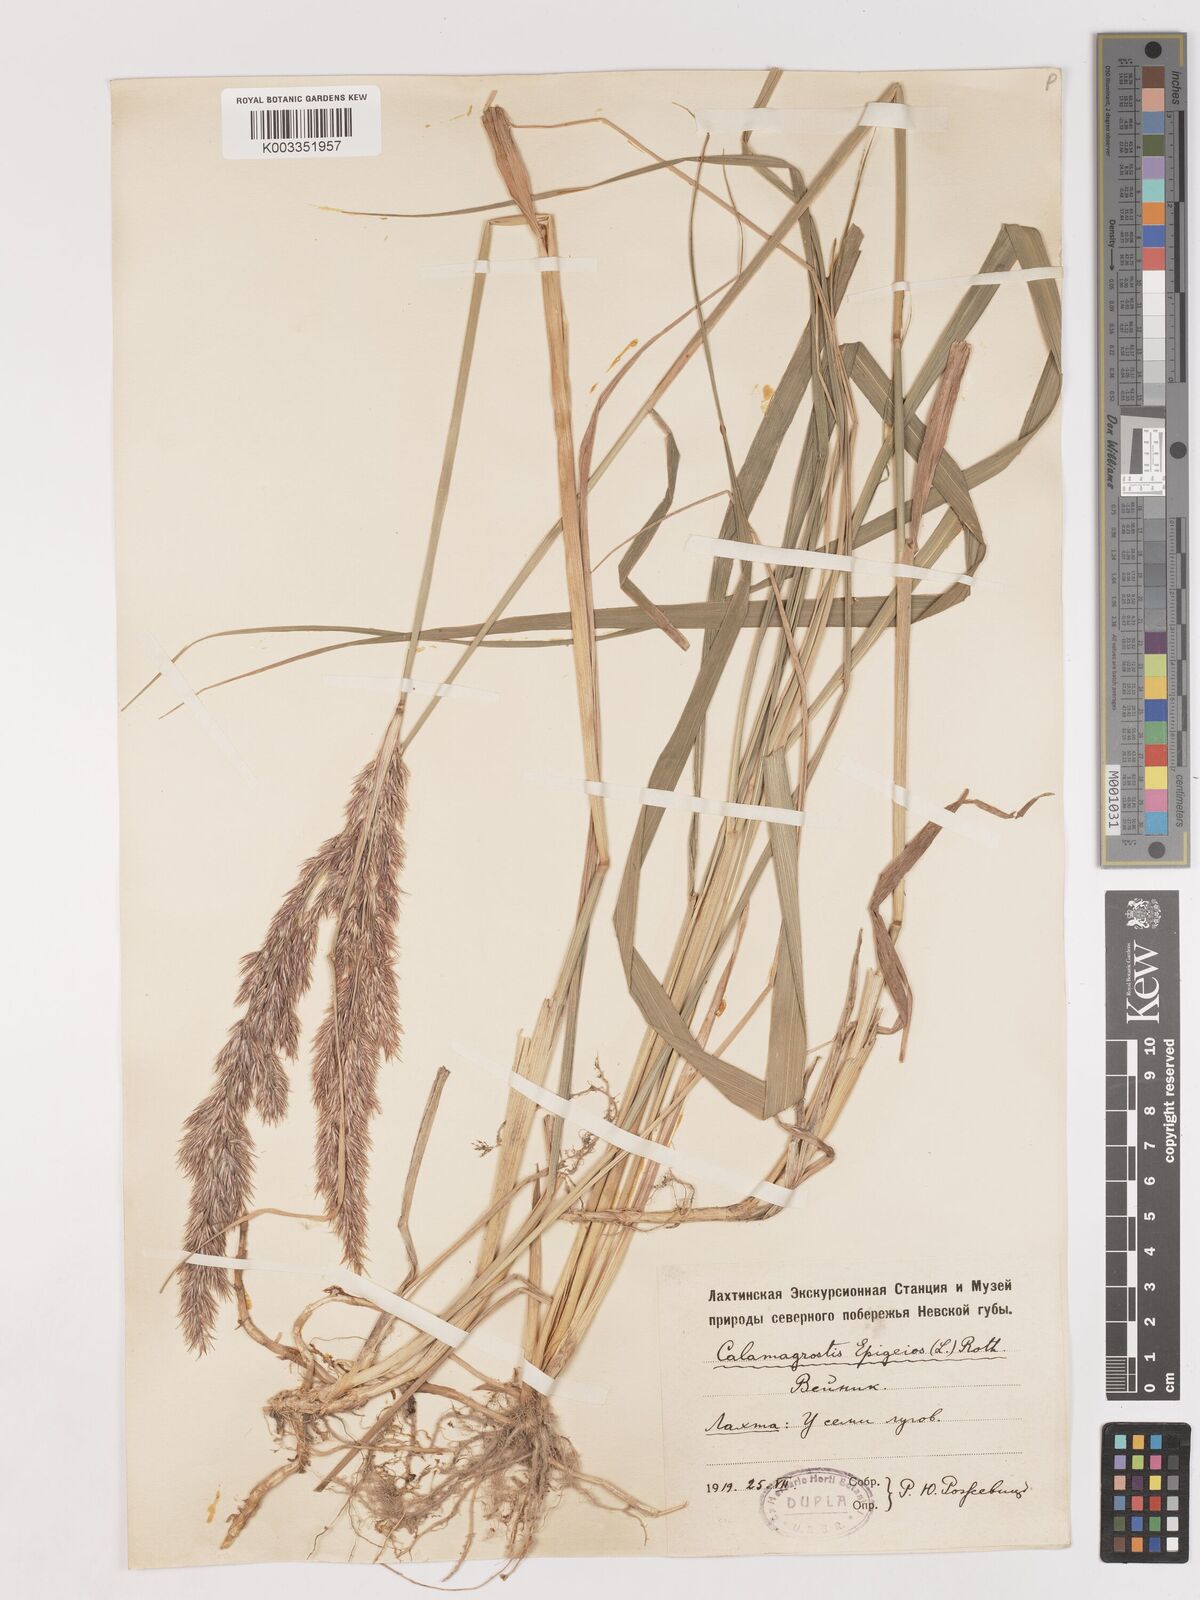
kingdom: Plantae
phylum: Tracheophyta
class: Liliopsida
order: Poales
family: Poaceae
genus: Calamagrostis
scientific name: Calamagrostis epigejos
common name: Wood small-reed
